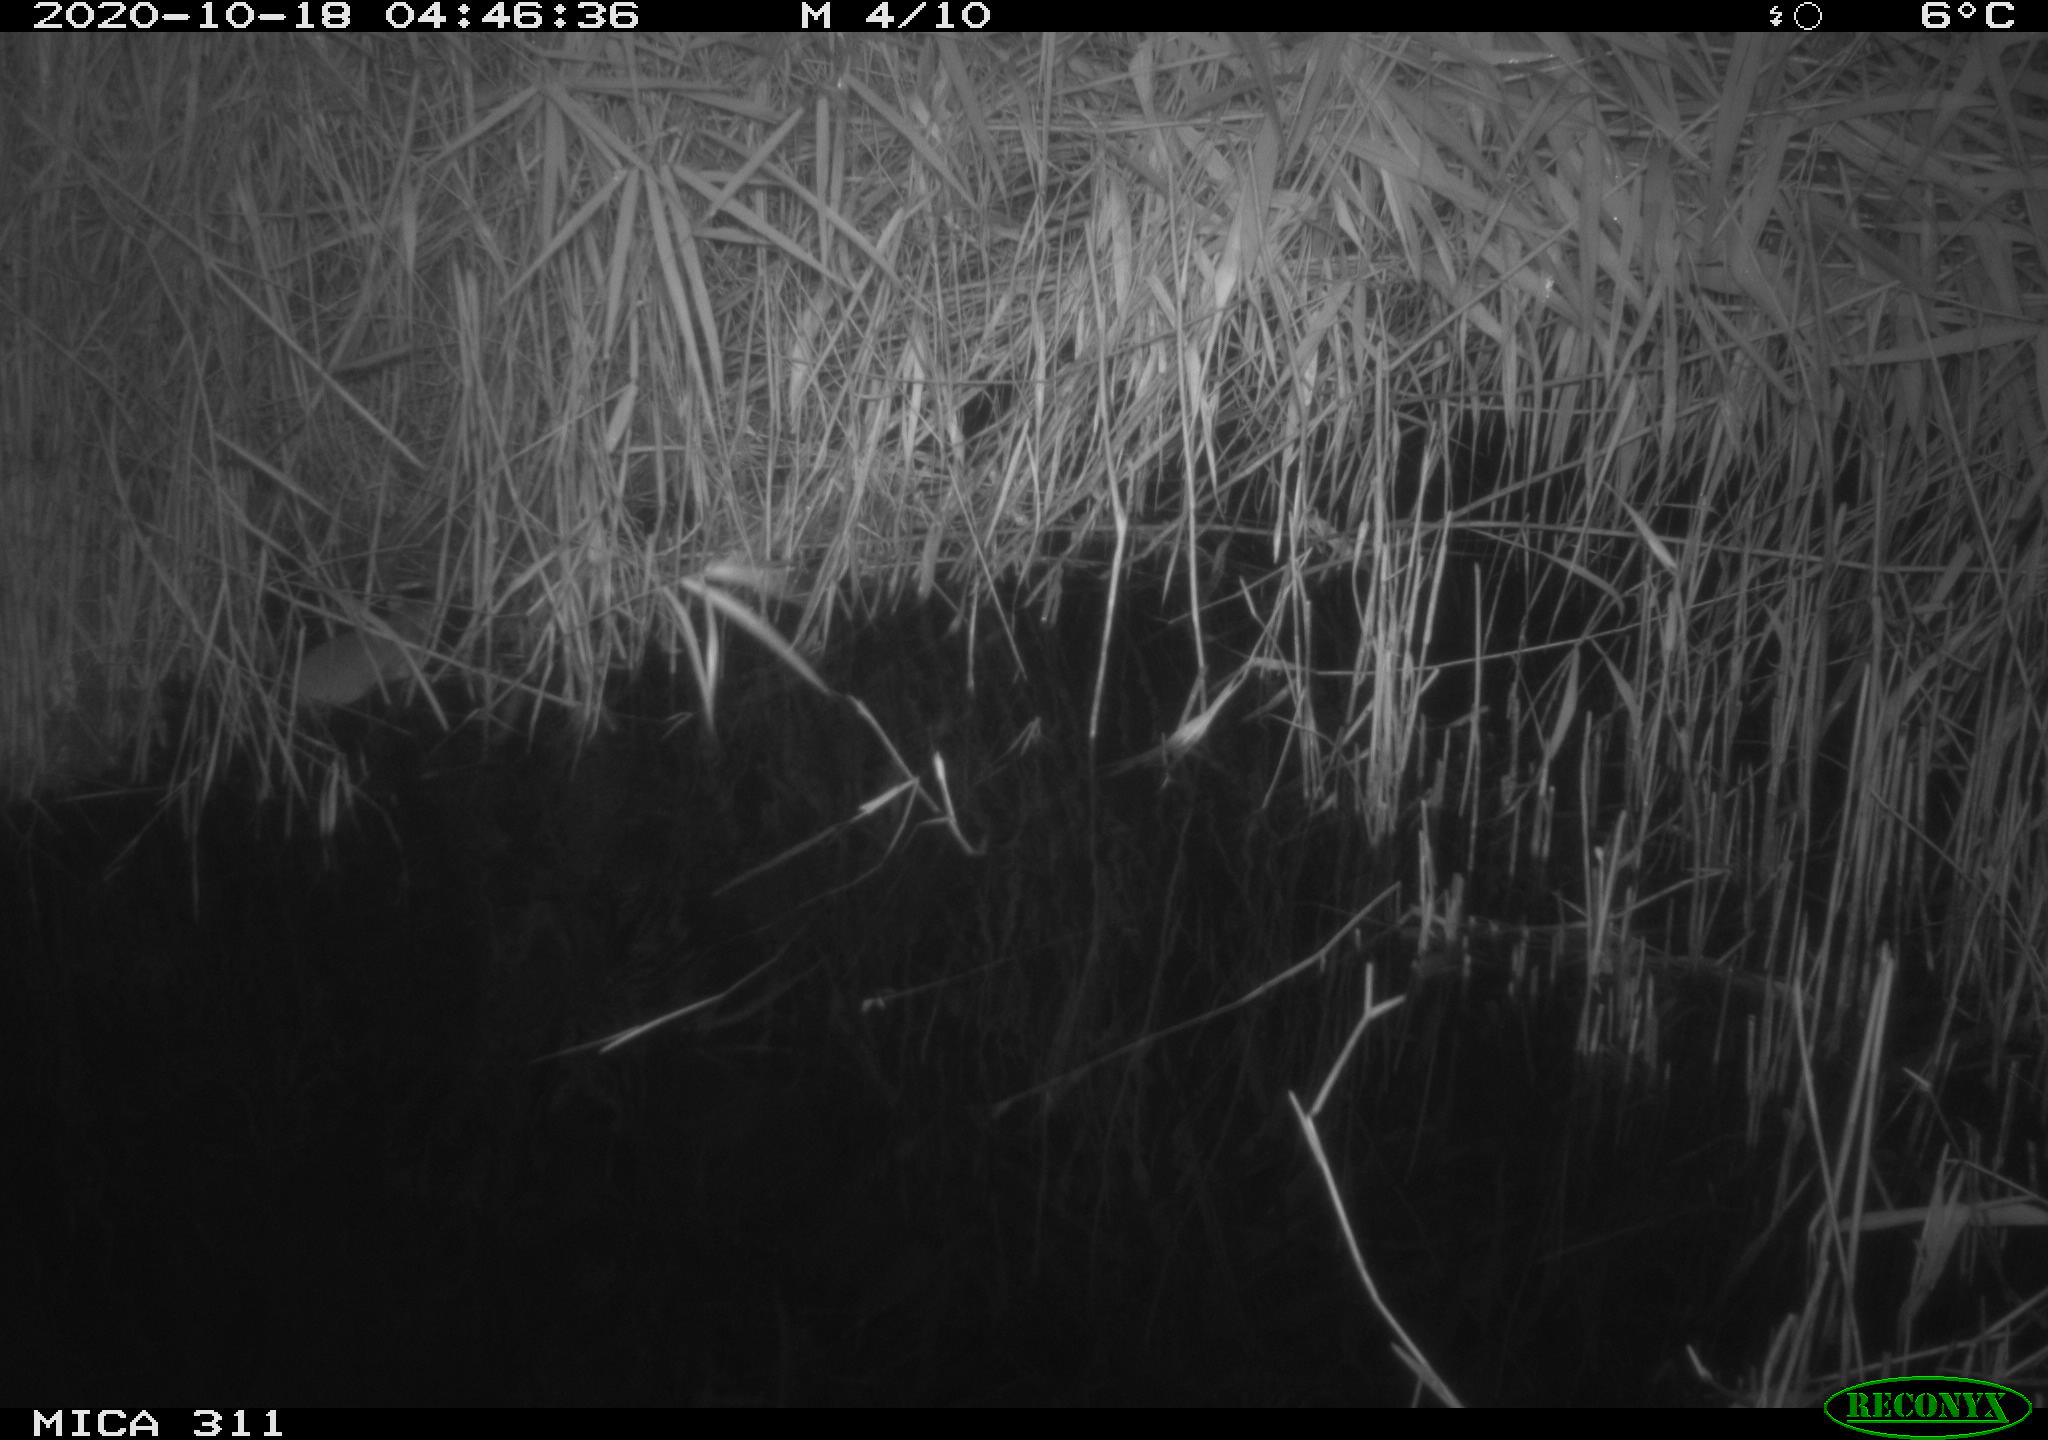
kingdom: Animalia
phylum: Chordata
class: Mammalia
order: Rodentia
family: Muridae
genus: Rattus
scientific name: Rattus norvegicus
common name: Brown rat
